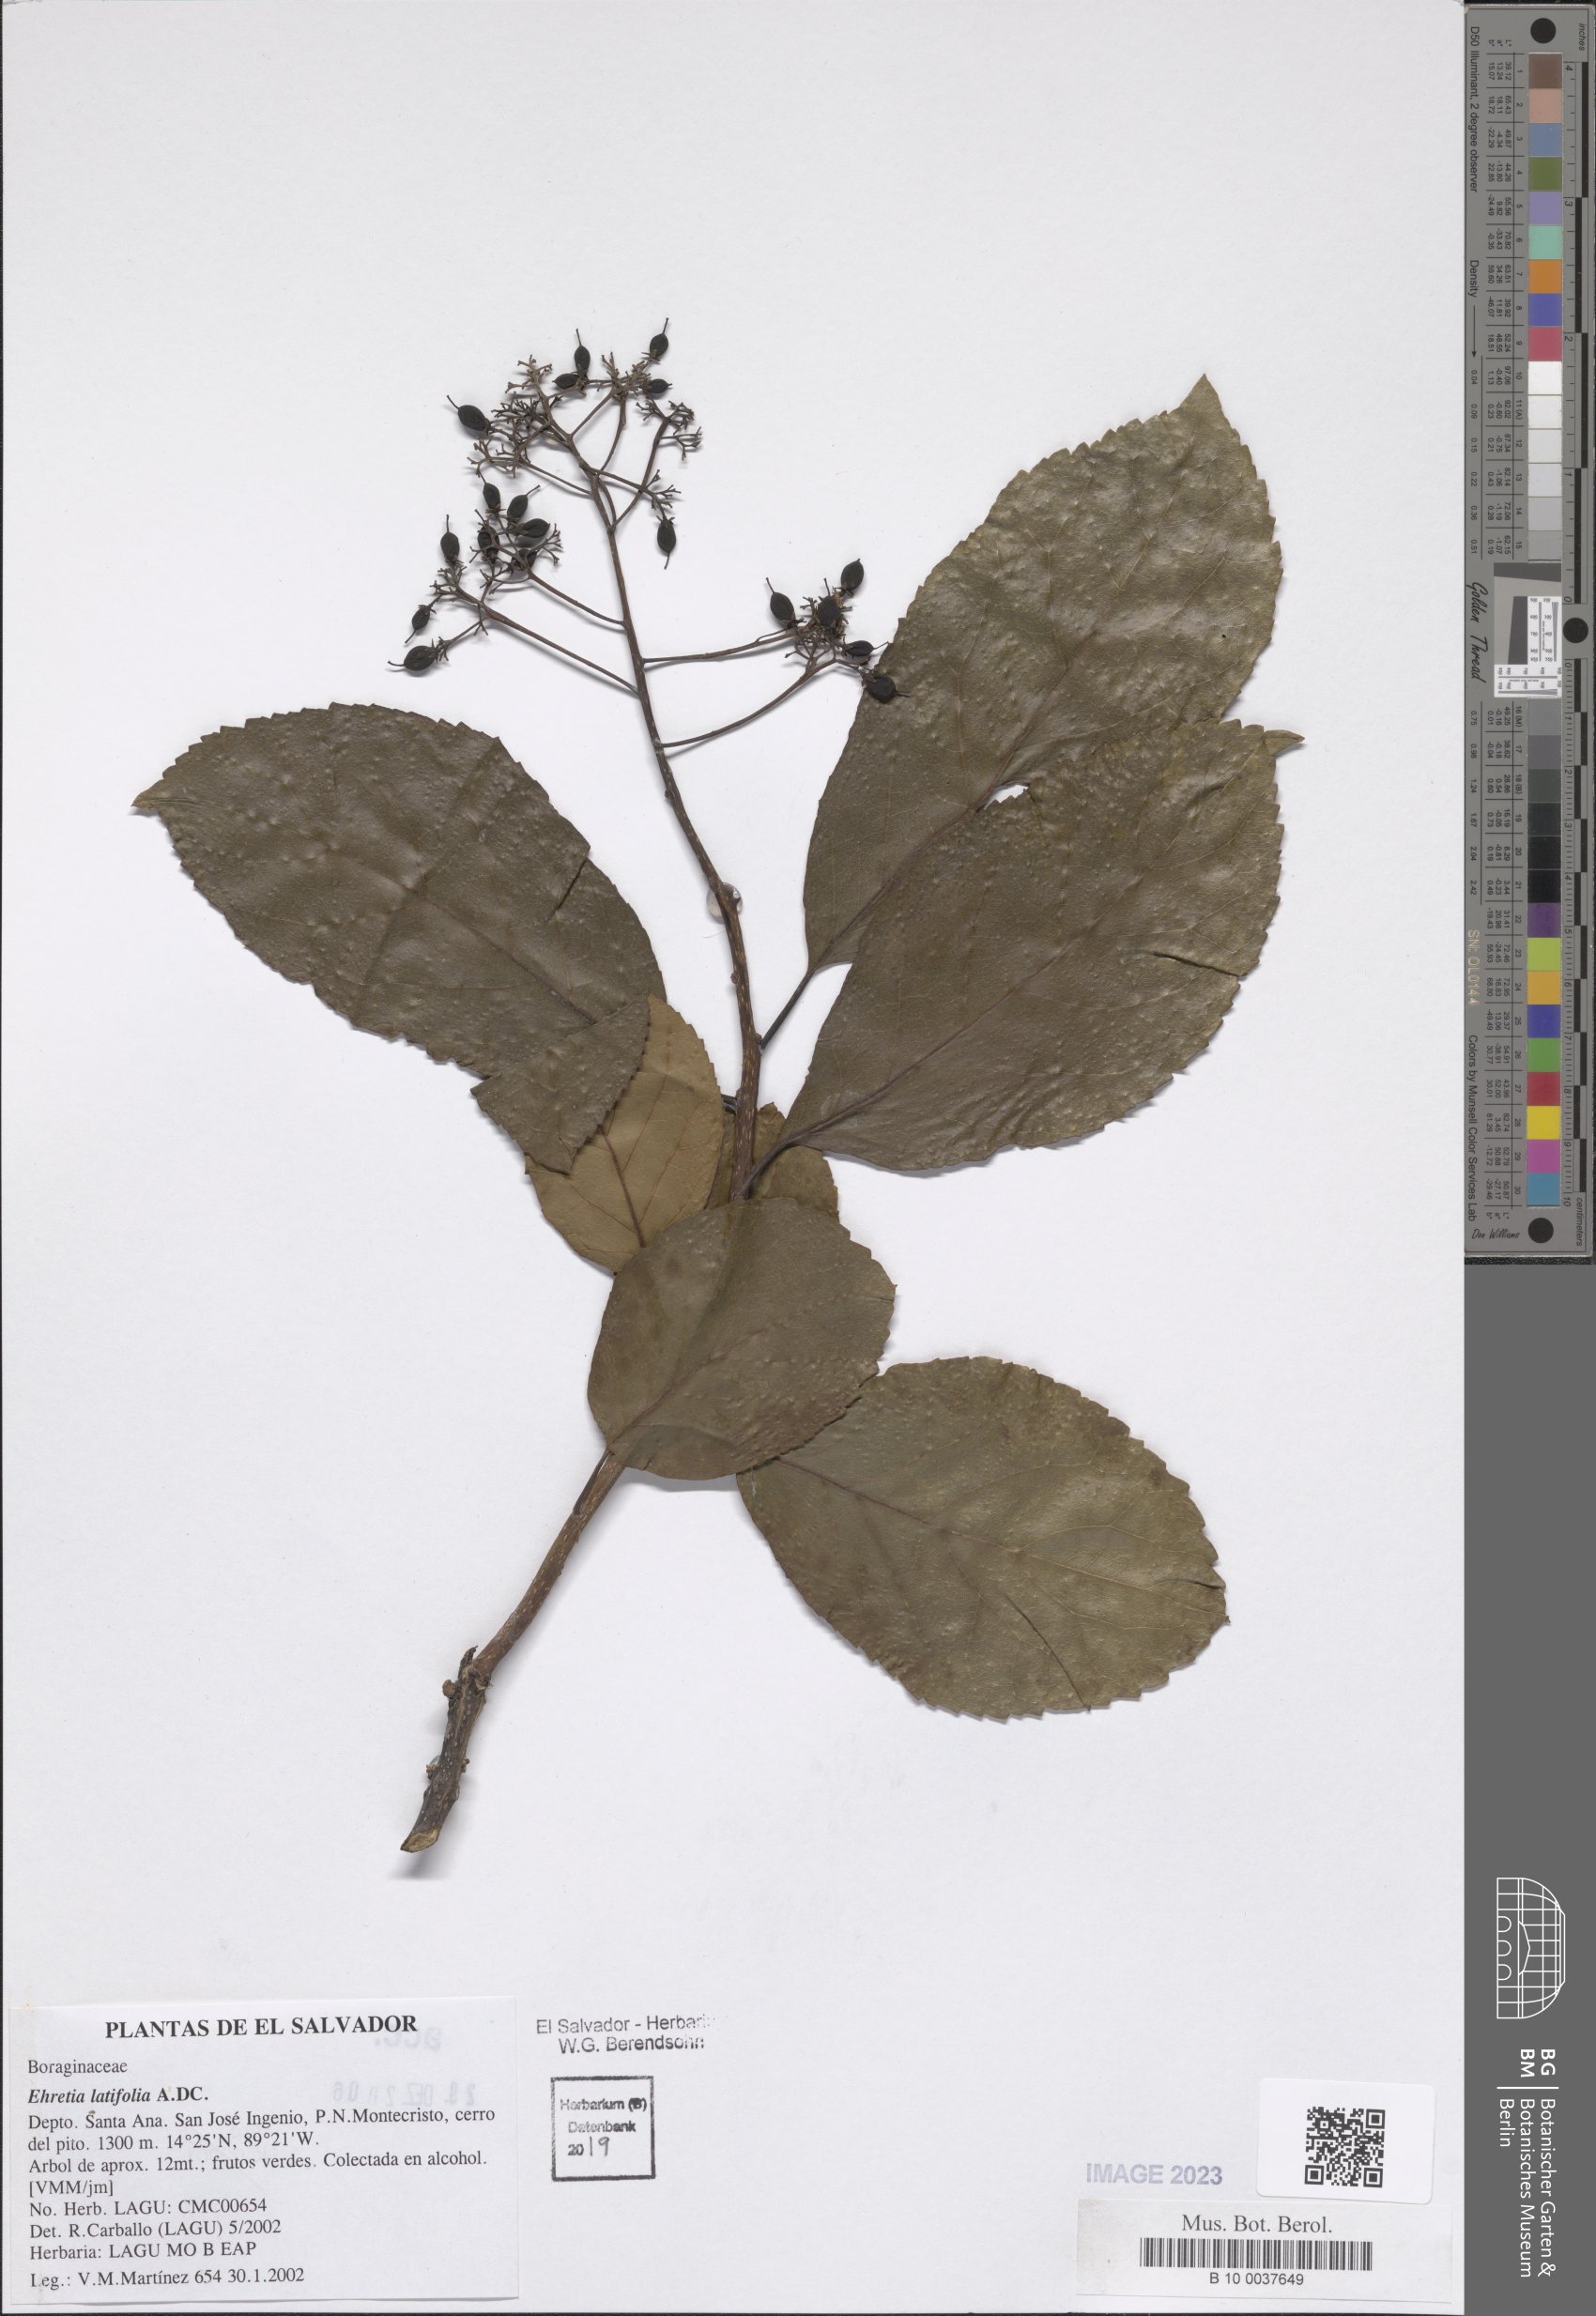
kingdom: Plantae
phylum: Tracheophyta
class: Magnoliopsida
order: Boraginales
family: Ehretiaceae
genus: Ehretia
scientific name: Ehretia latifolia
